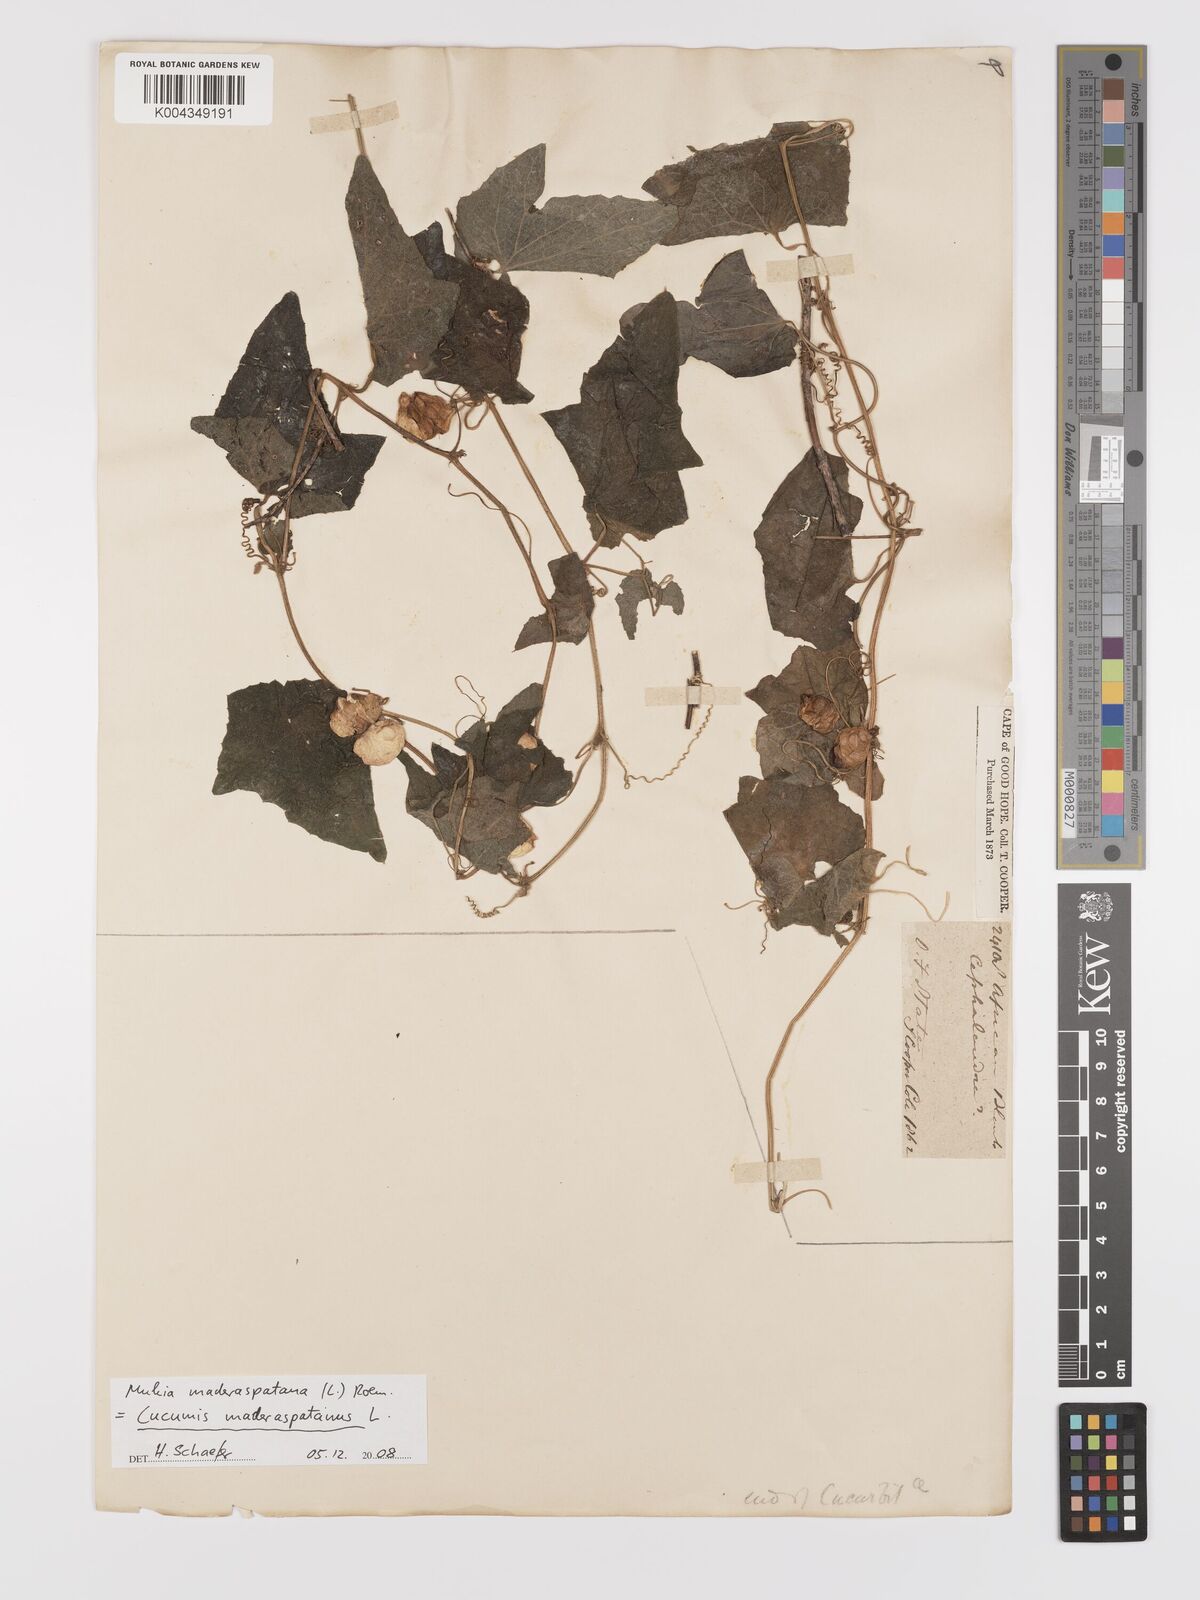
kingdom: Plantae
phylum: Tracheophyta
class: Magnoliopsida
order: Cucurbitales
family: Cucurbitaceae
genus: Cucumis
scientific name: Cucumis maderaspatanus
